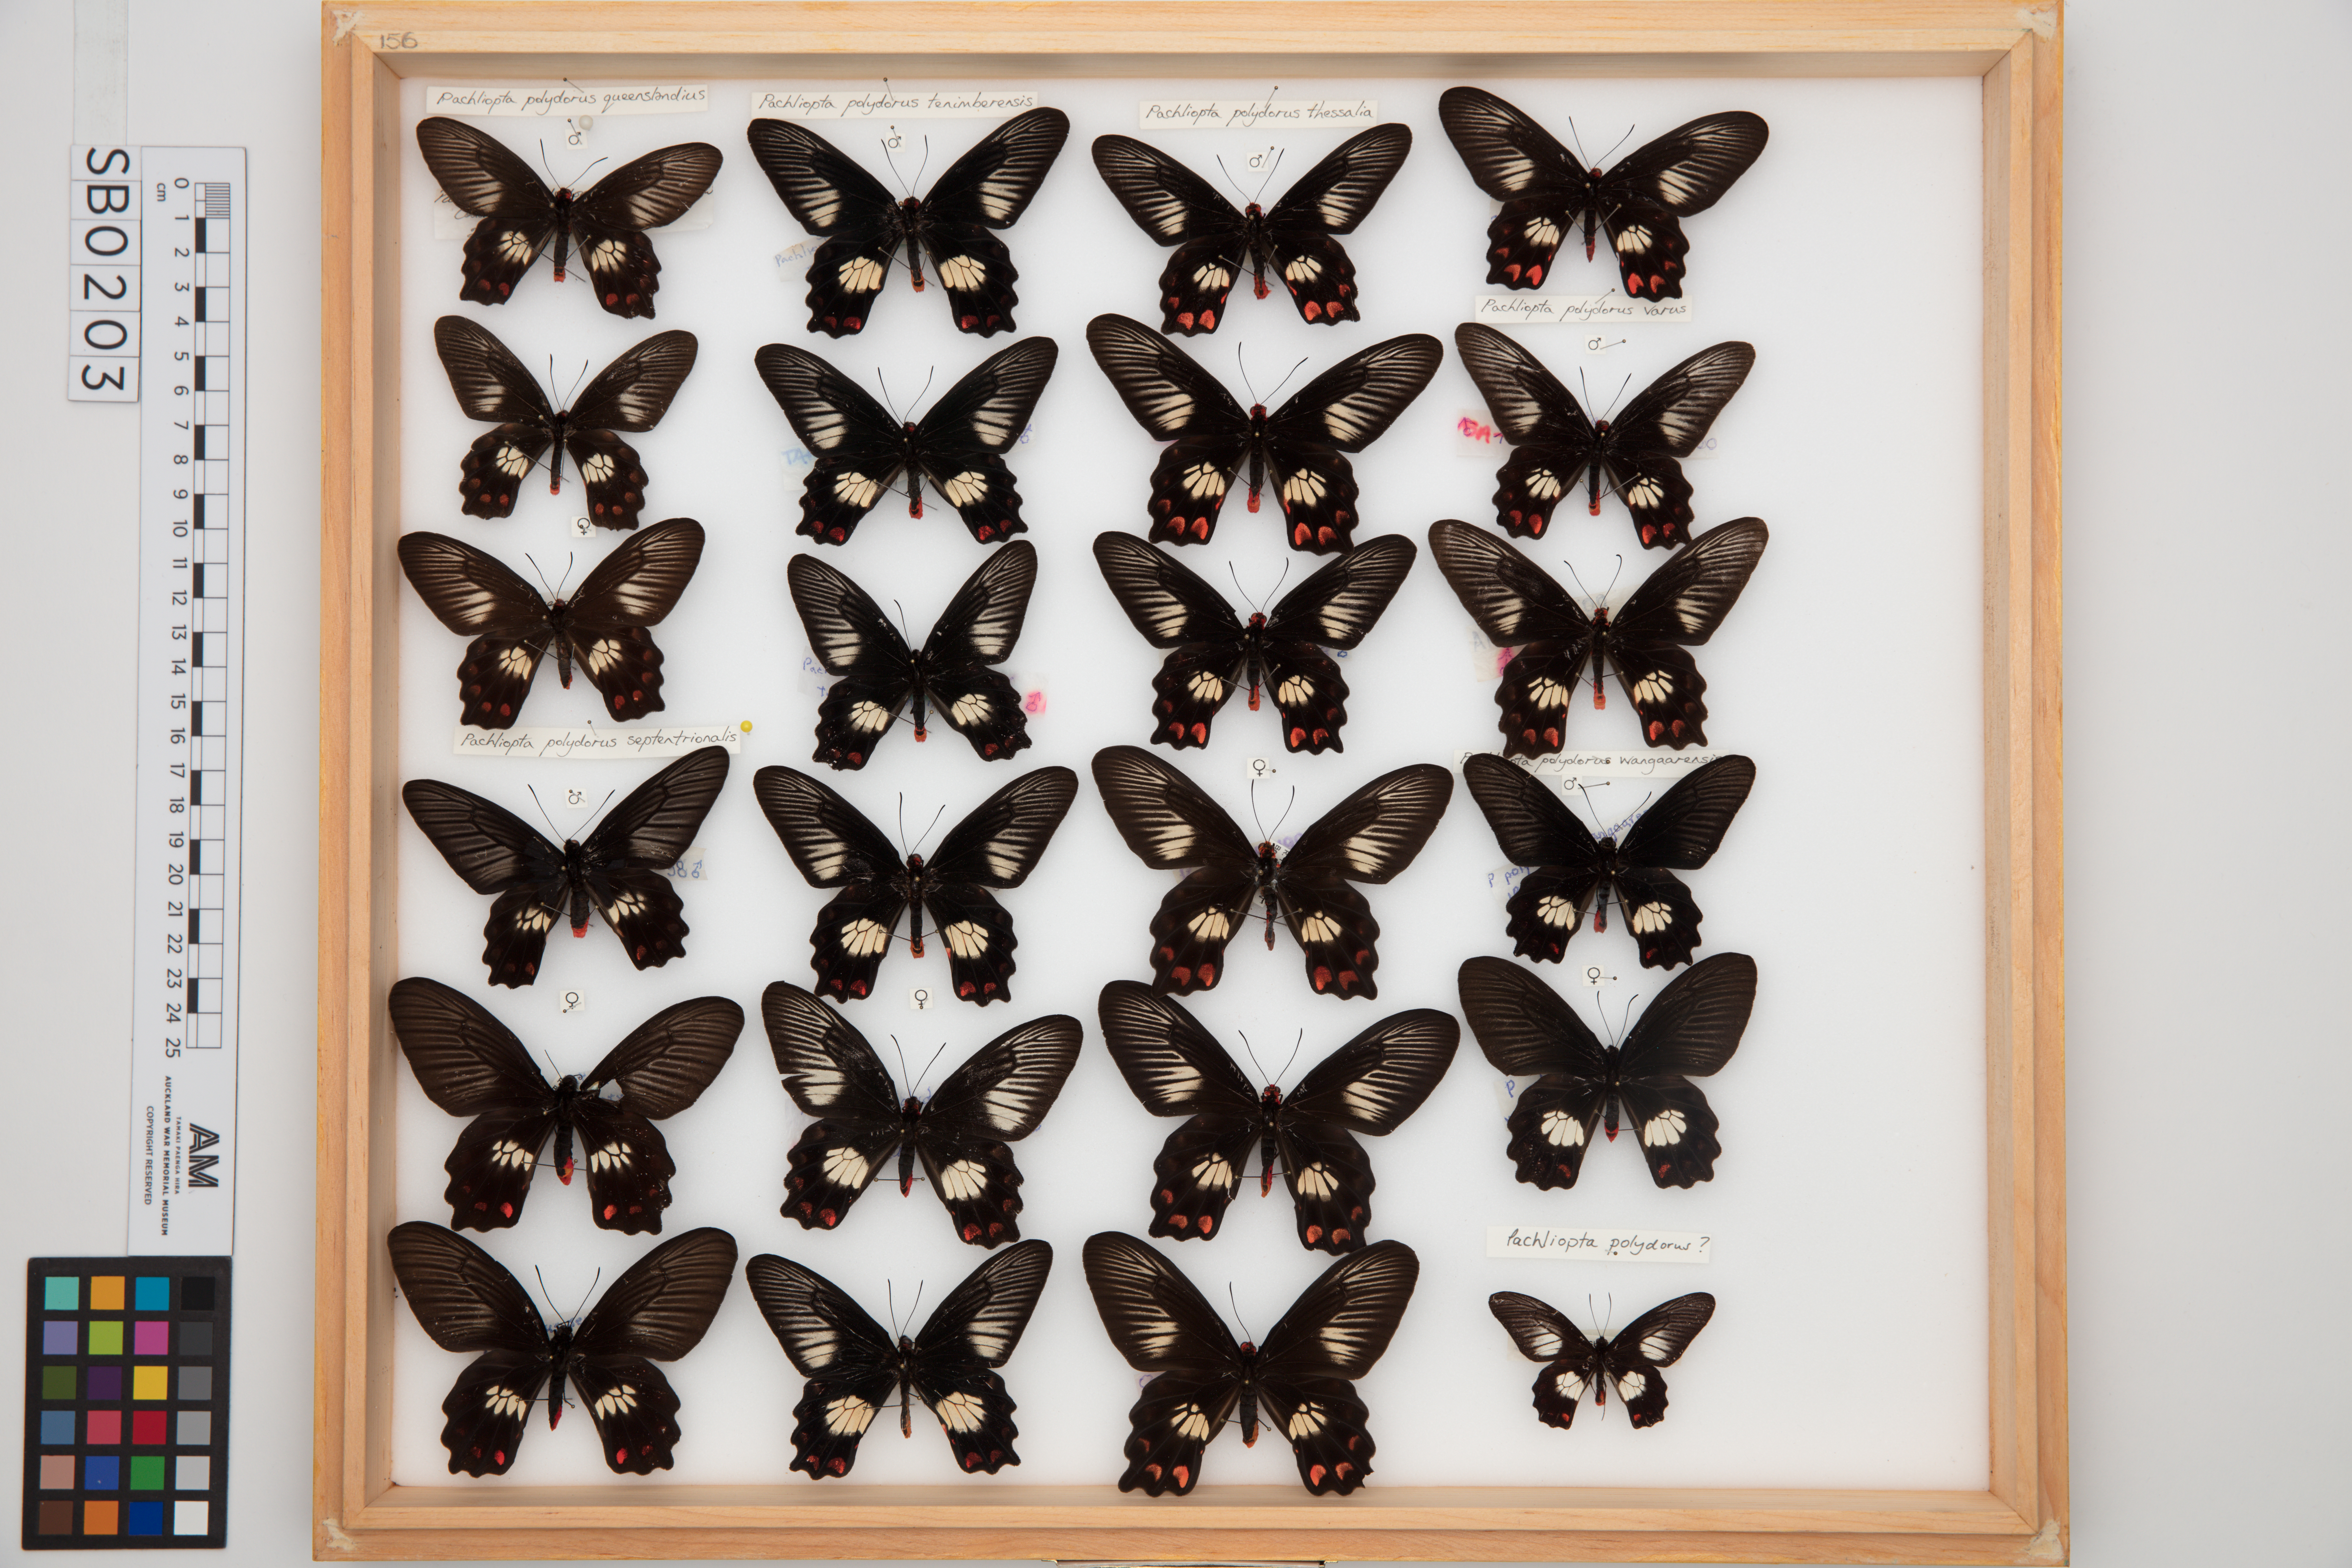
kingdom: Animalia
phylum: Arthropoda
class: Insecta
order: Lepidoptera
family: Papilionidae
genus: Pachliopta
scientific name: Pachliopta polydorus
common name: Red-bodied swallowtail
